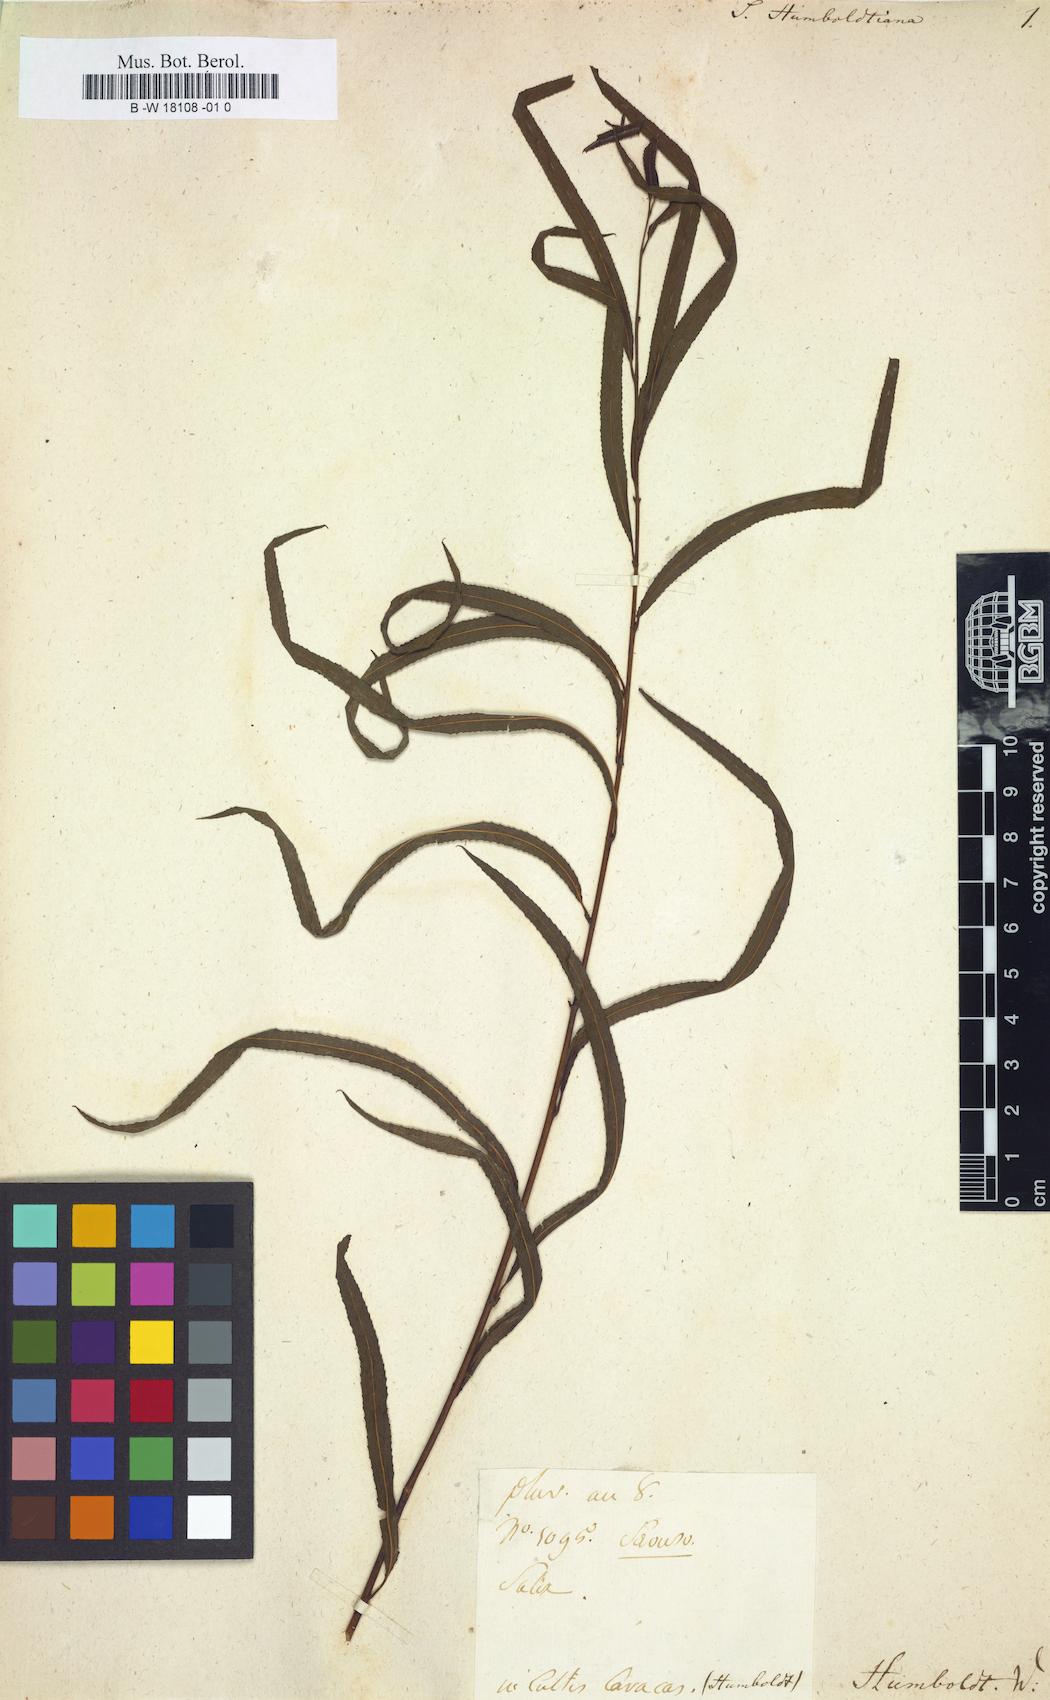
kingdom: Plantae
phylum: Tracheophyta
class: Magnoliopsida
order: Malpighiales
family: Salicaceae
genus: Salix
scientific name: Salix humboldtiana
